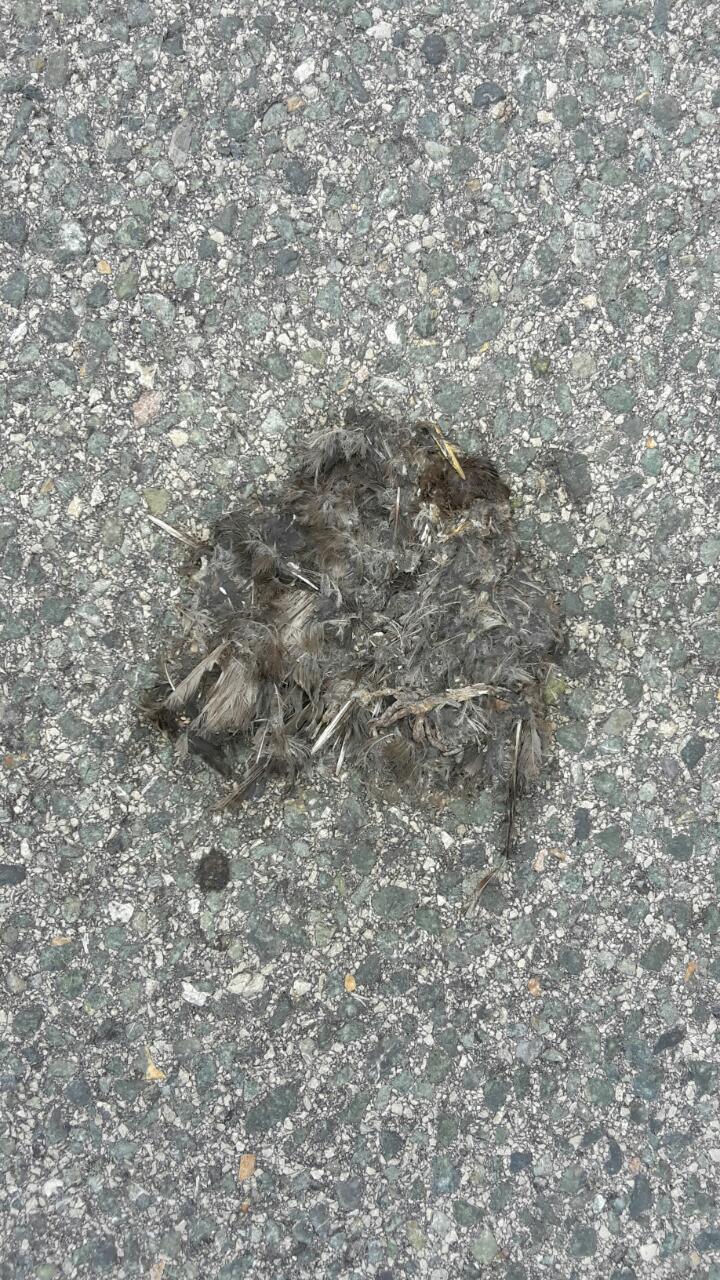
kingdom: Animalia
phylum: Chordata
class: Aves
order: Passeriformes
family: Turdidae
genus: Turdus
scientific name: Turdus merula
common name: Common blackbird
